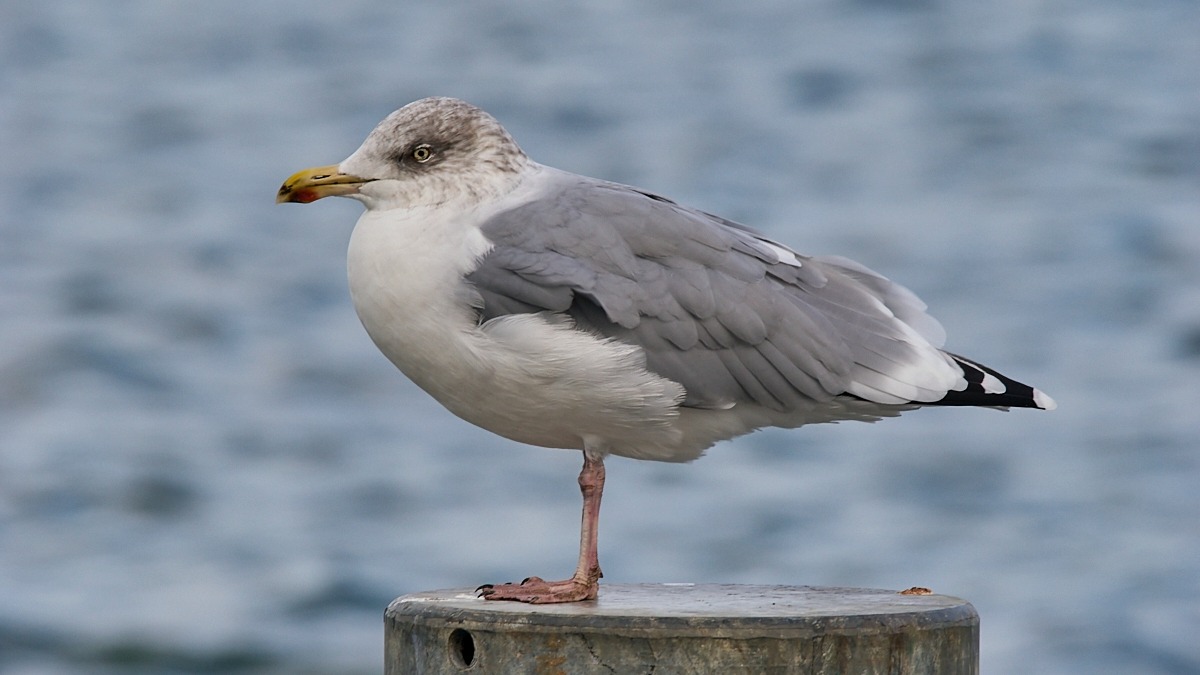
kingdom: Animalia
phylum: Chordata
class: Aves
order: Charadriiformes
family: Laridae
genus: Larus
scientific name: Larus argentatus
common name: Sølvmåge
